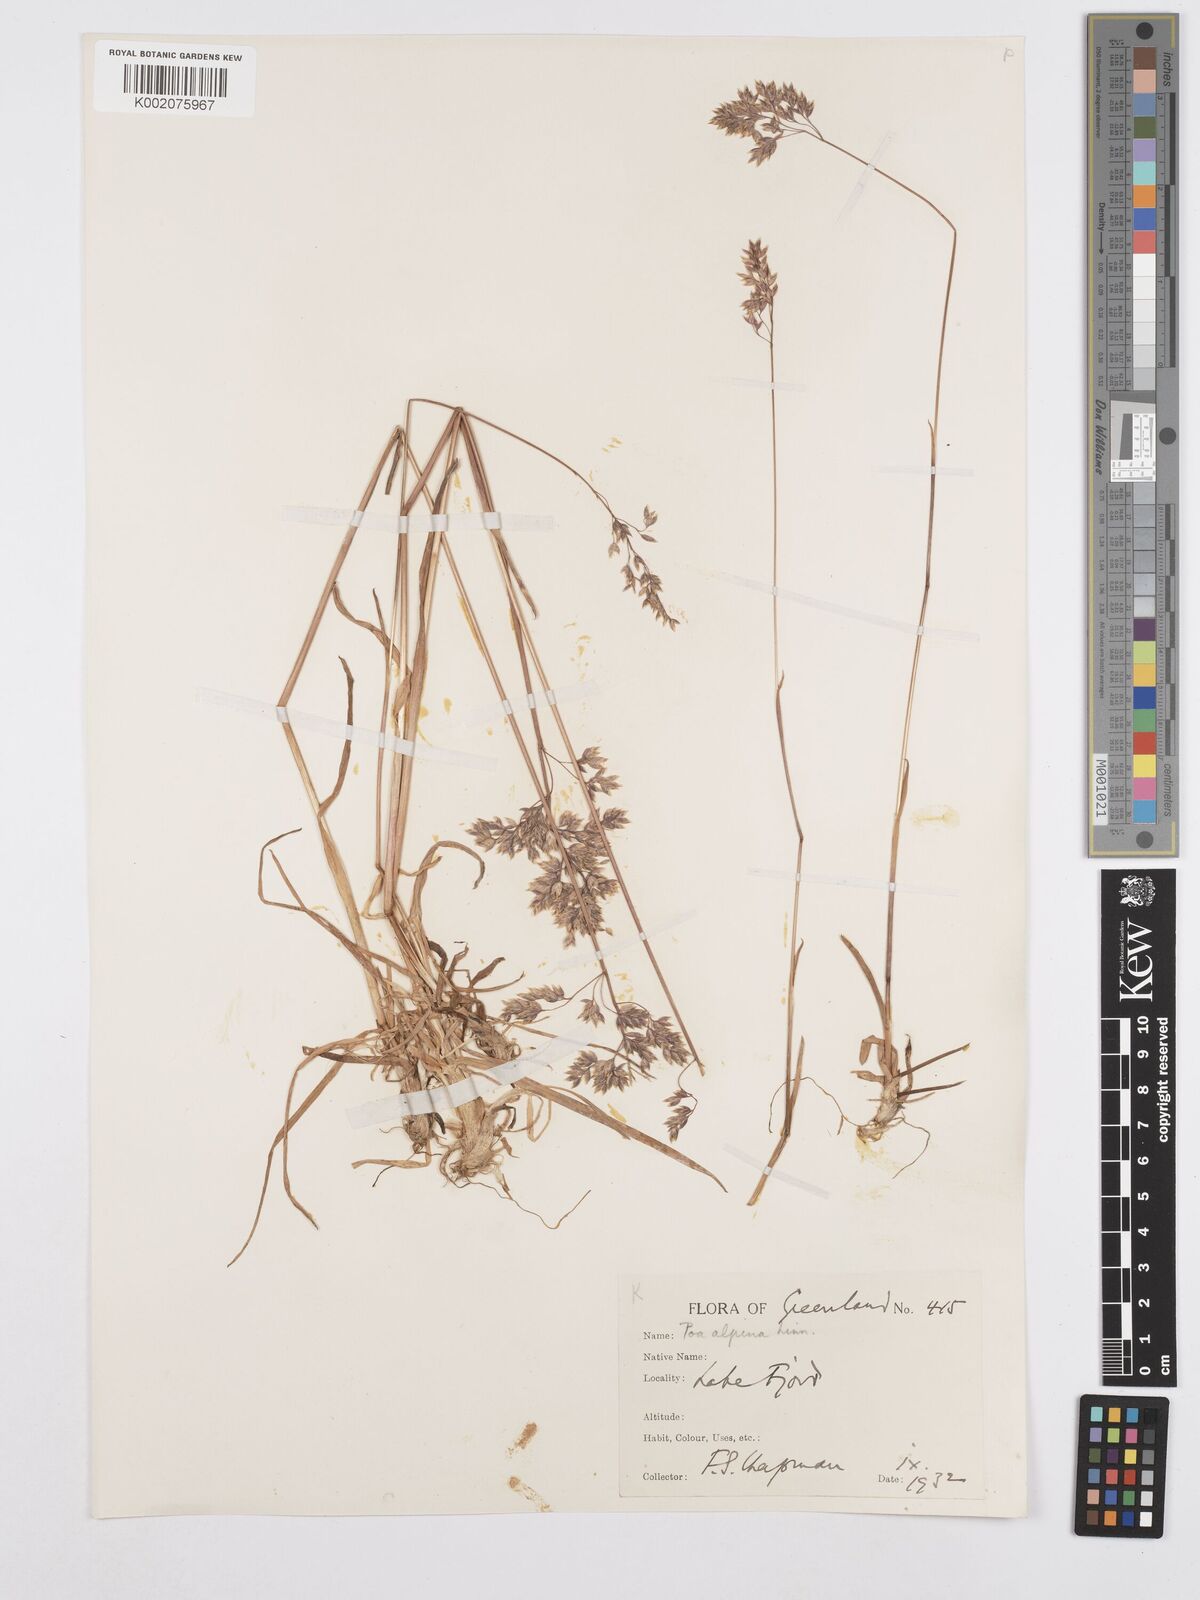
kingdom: Plantae
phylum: Tracheophyta
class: Liliopsida
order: Poales
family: Poaceae
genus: Poa
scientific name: Poa alpina
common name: Alpine bluegrass
